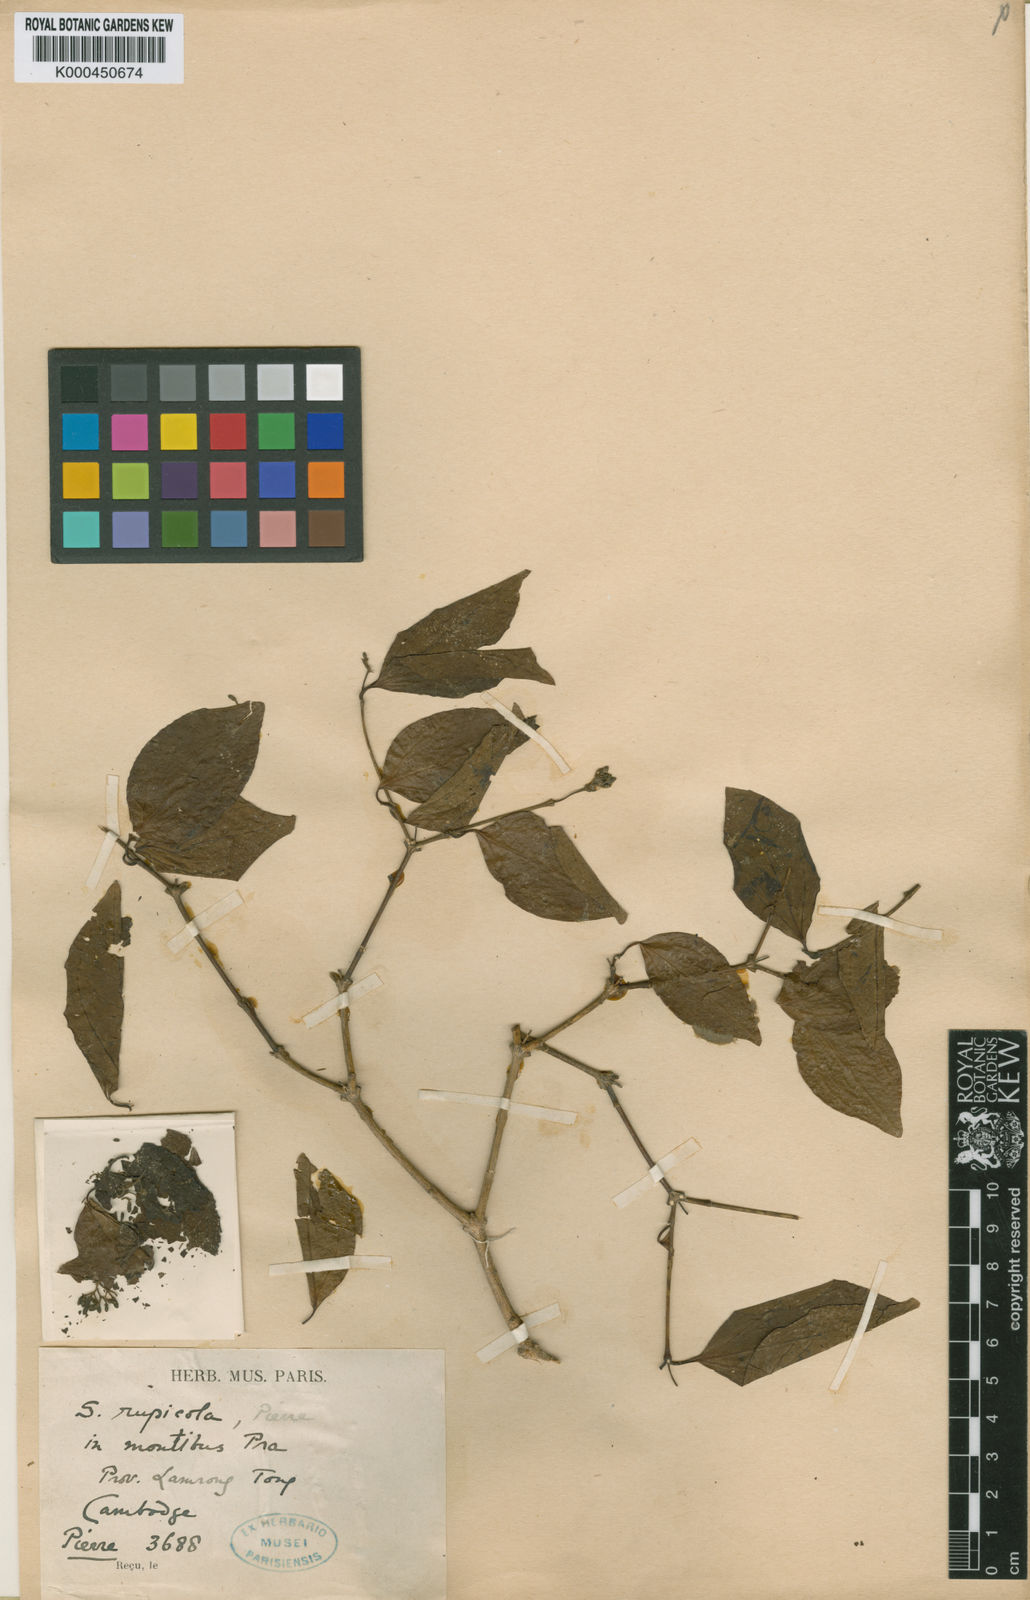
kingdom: Plantae
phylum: Tracheophyta
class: Magnoliopsida
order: Gentianales
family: Loganiaceae
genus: Strychnos
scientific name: Strychnos rupicola
